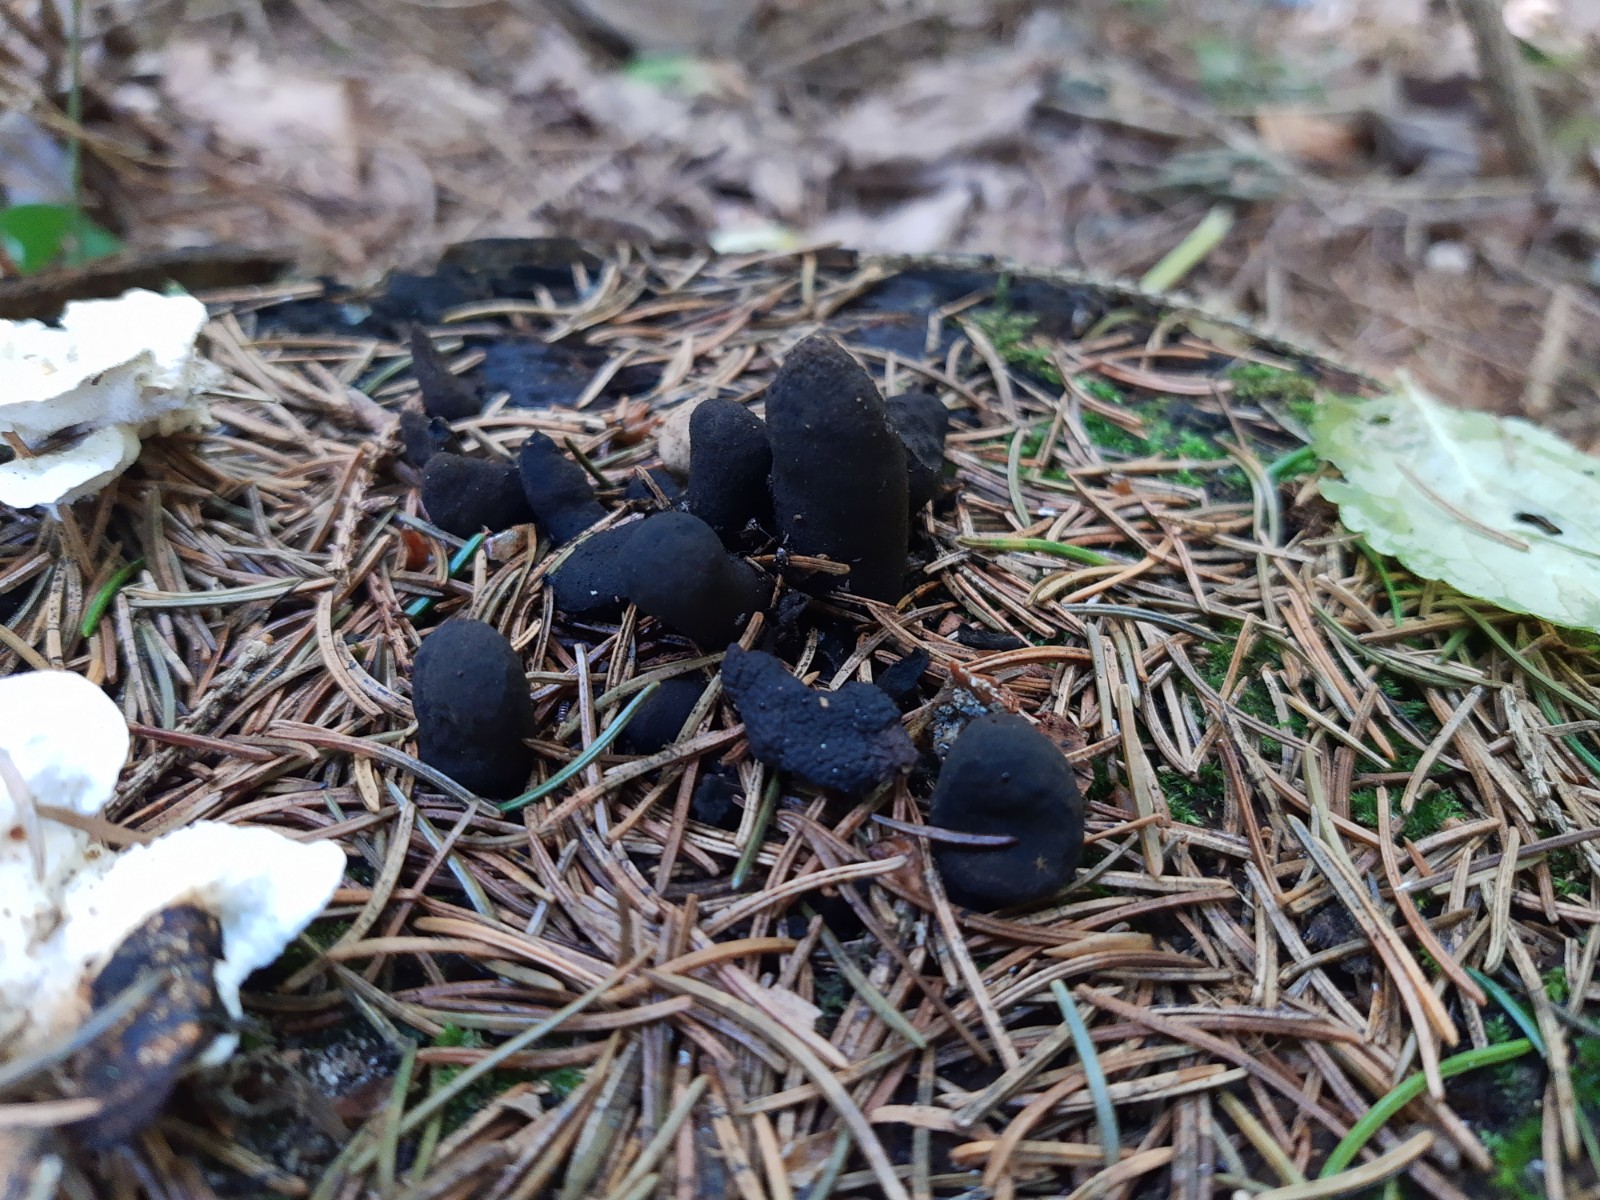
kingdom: Fungi
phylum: Ascomycota
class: Sordariomycetes
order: Xylariales
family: Xylariaceae
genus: Xylaria
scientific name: Xylaria polymorpha
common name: kølle-stødsvamp
